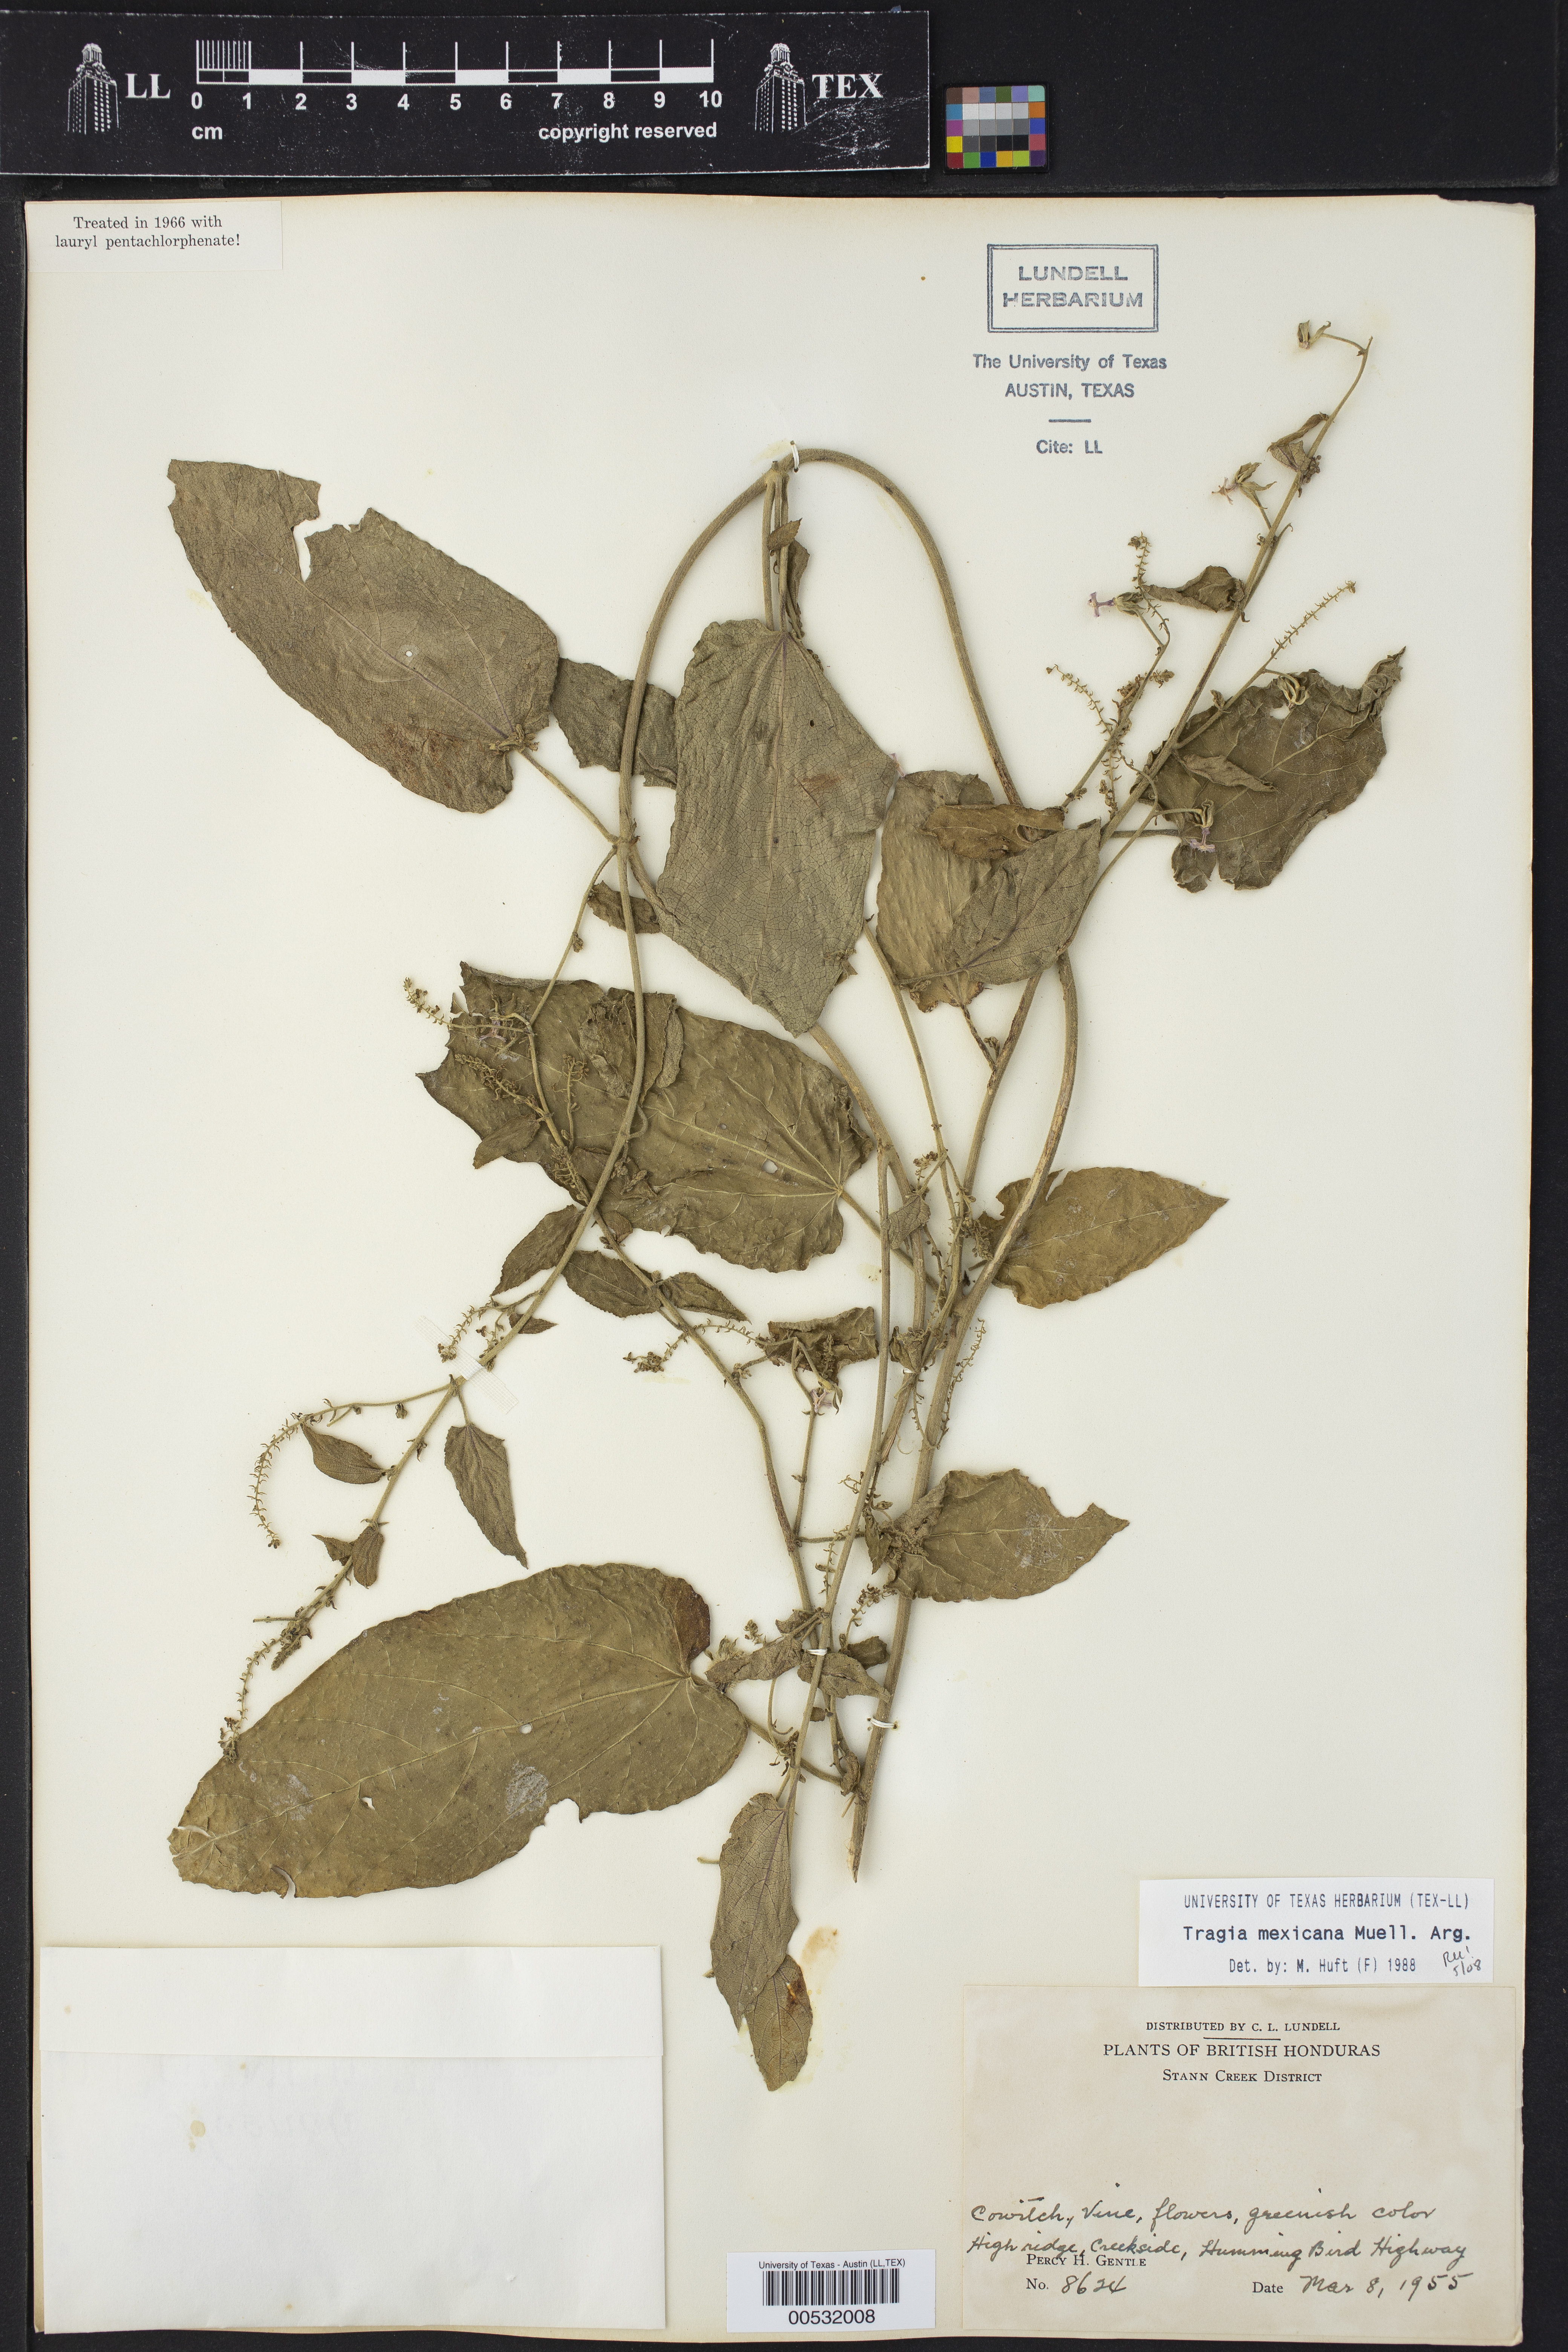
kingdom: Plantae
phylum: Tracheophyta
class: Magnoliopsida
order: Malpighiales
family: Euphorbiaceae
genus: Tragia
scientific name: Tragia mexicana
